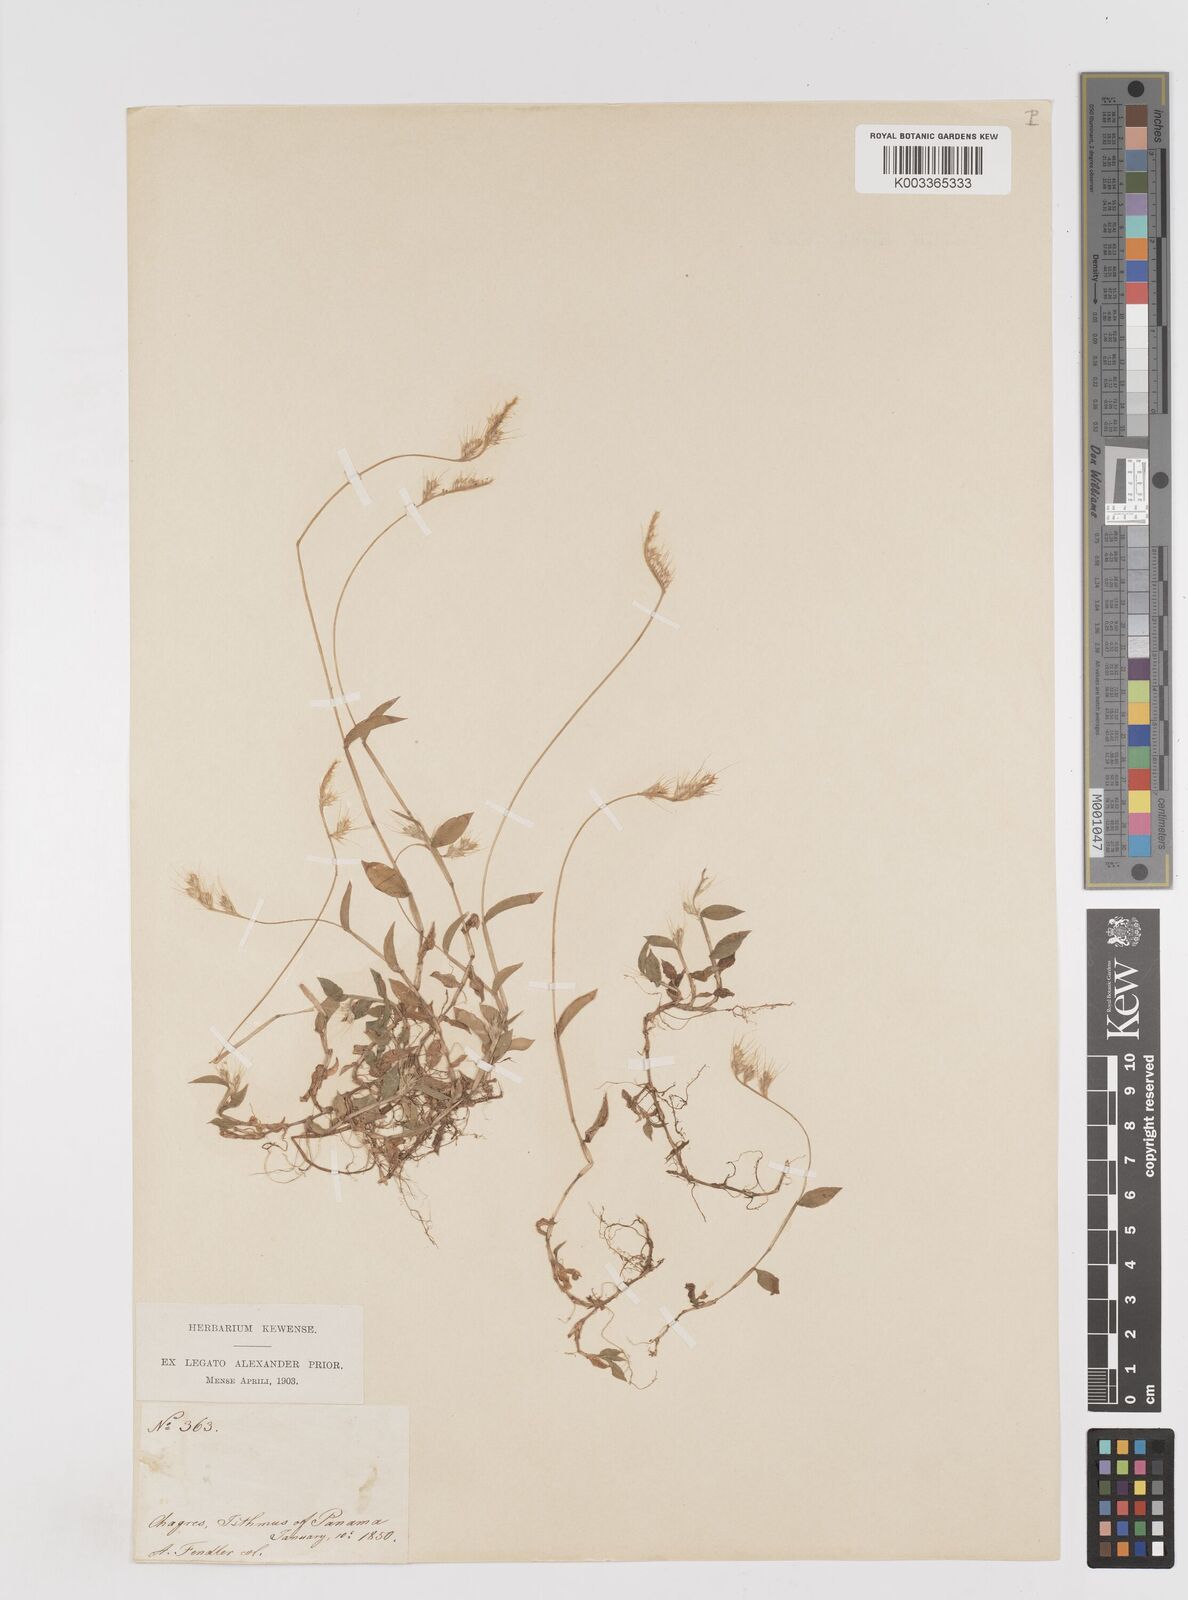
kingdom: Plantae
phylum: Tracheophyta
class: Liliopsida
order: Poales
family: Poaceae
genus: Oplismenus
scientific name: Oplismenus burmanni
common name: Burmann's basketgrass
